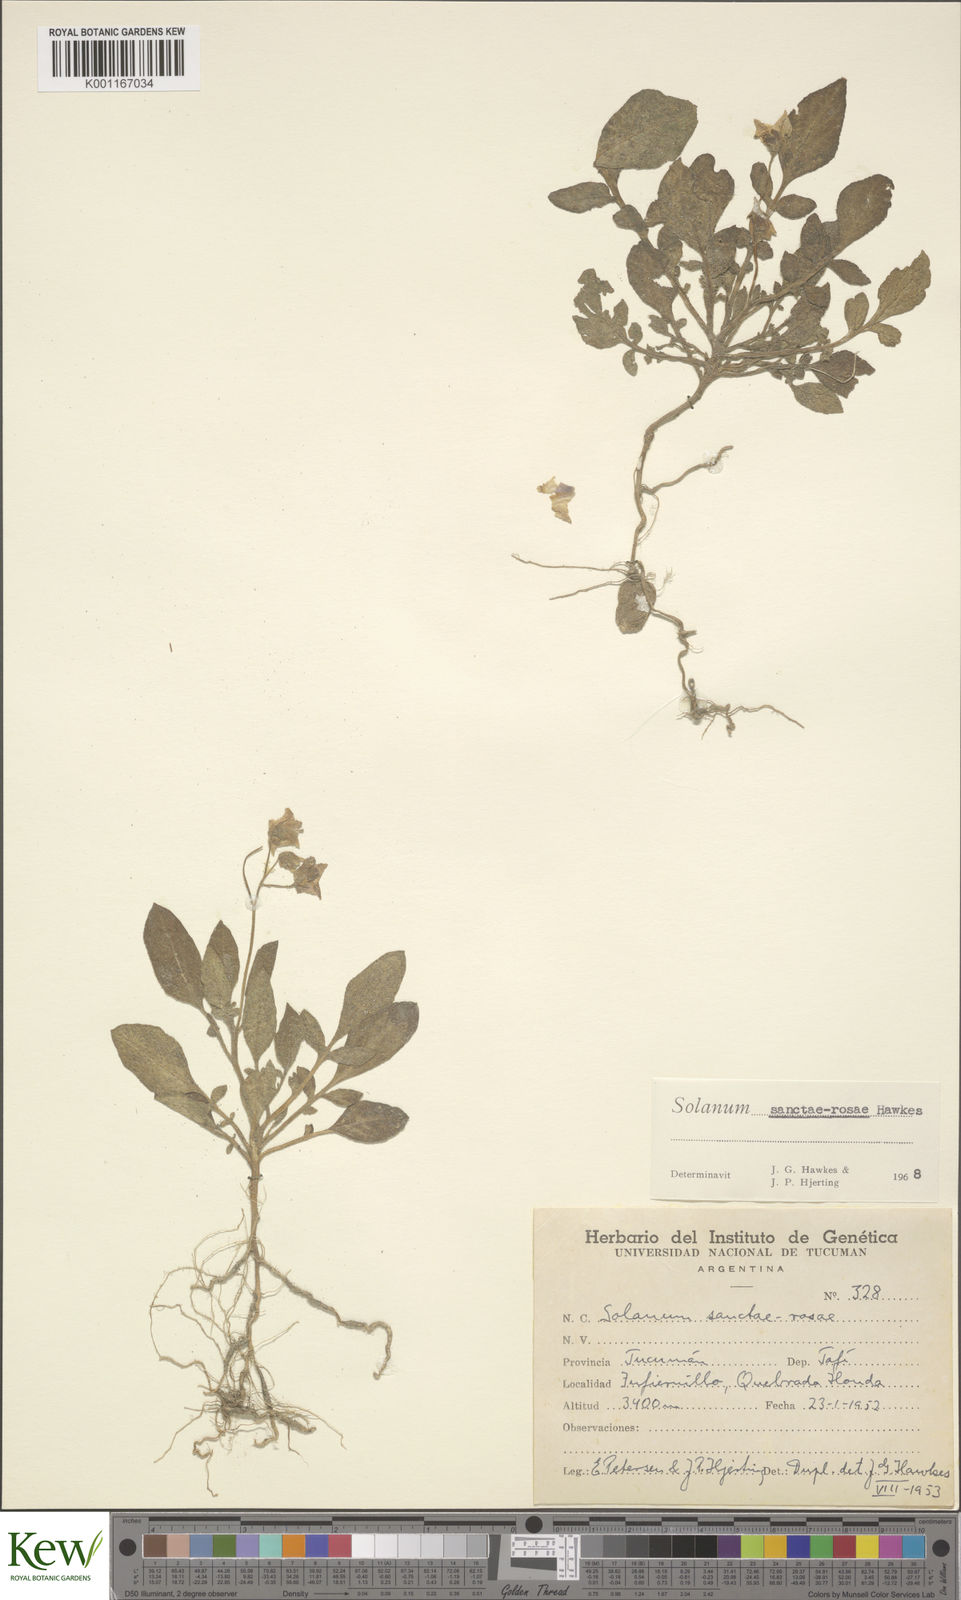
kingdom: Plantae
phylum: Tracheophyta
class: Magnoliopsida
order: Solanales
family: Solanaceae
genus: Solanum
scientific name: Solanum boliviense
